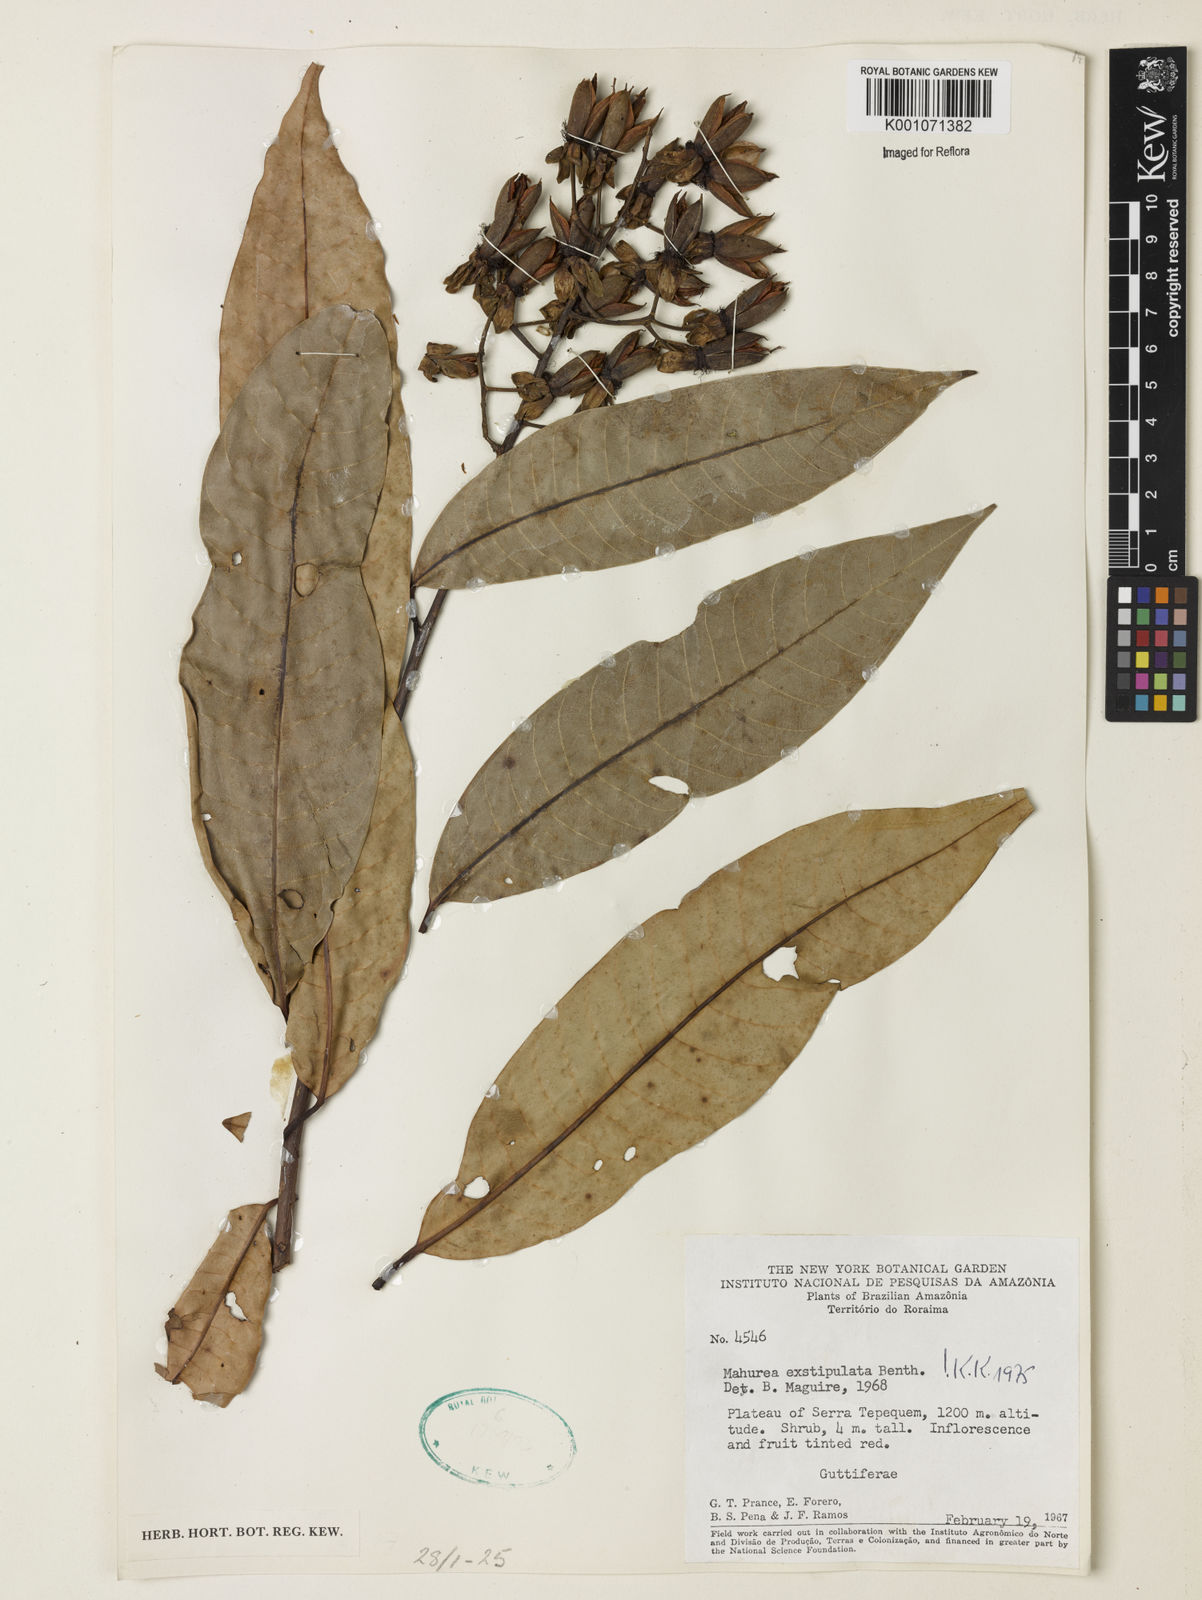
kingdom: Plantae
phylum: Tracheophyta
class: Magnoliopsida
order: Malpighiales
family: Calophyllaceae
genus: Mahurea
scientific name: Mahurea exstipulata
